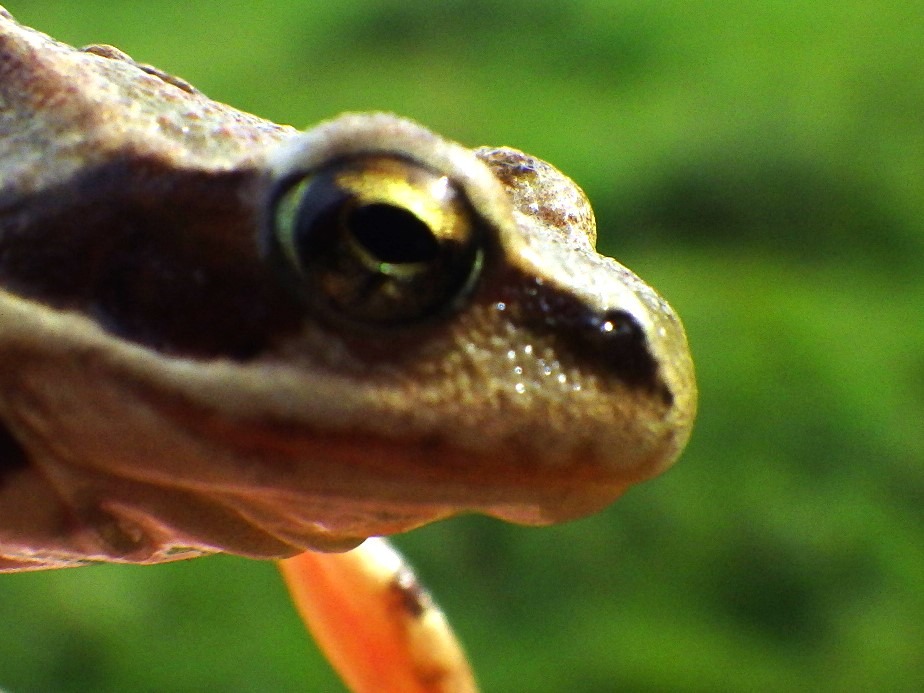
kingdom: Animalia
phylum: Chordata
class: Amphibia
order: Anura
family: Ranidae
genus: Rana
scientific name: Rana temporaria
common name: Butsnudet frø
